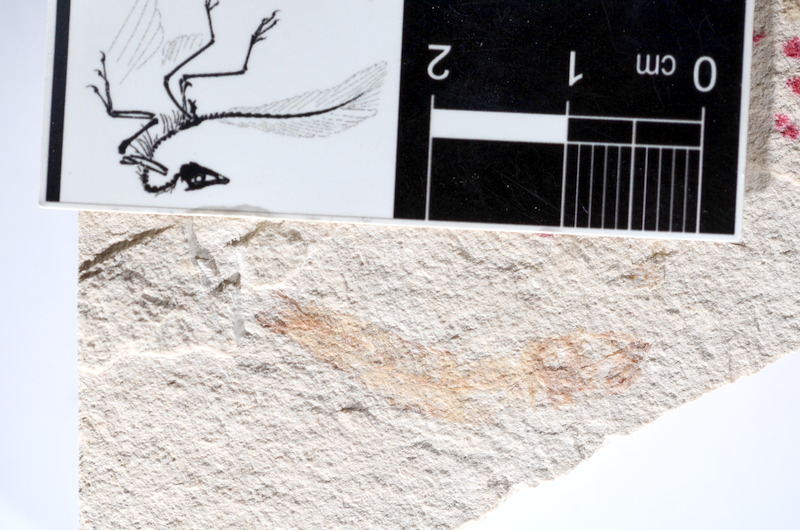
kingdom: Animalia
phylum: Chordata
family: Ascalaboidae
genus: Tharsis
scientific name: Tharsis dubius
